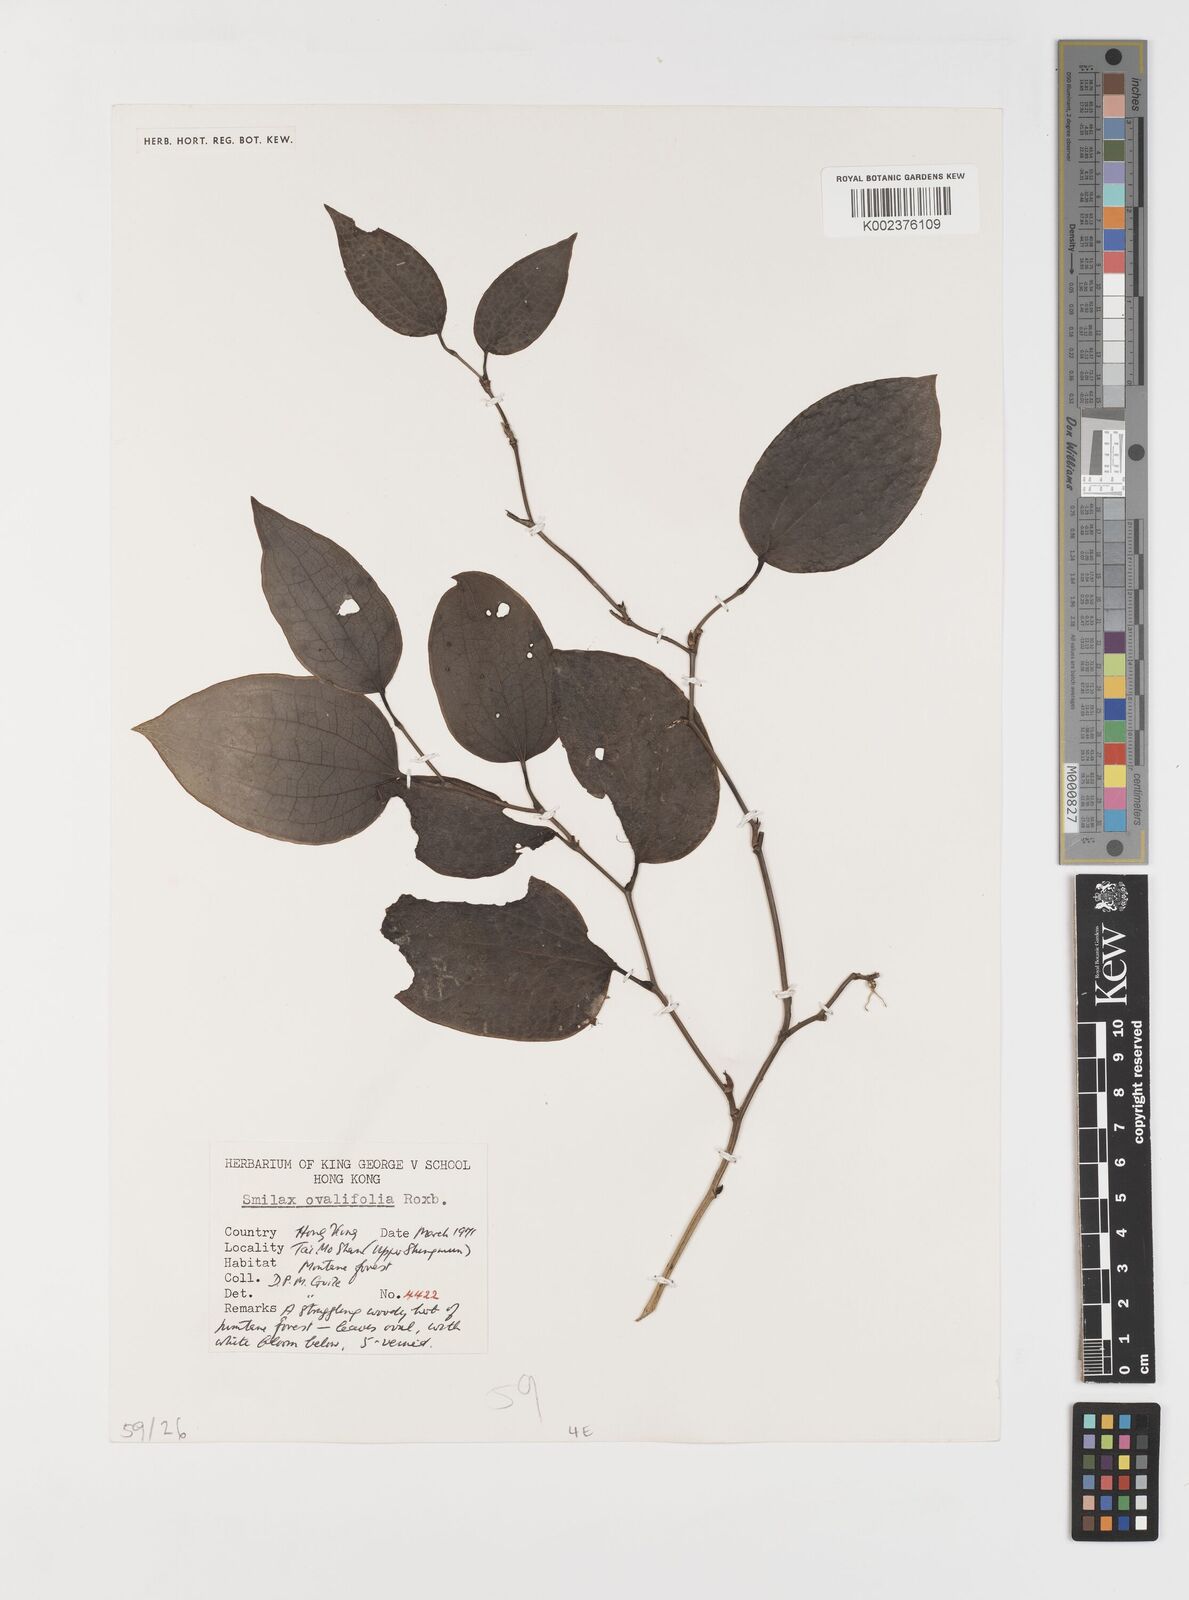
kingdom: Plantae
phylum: Tracheophyta
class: Liliopsida
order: Liliales
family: Smilacaceae
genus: Smilax
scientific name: Smilax ovalifolia
